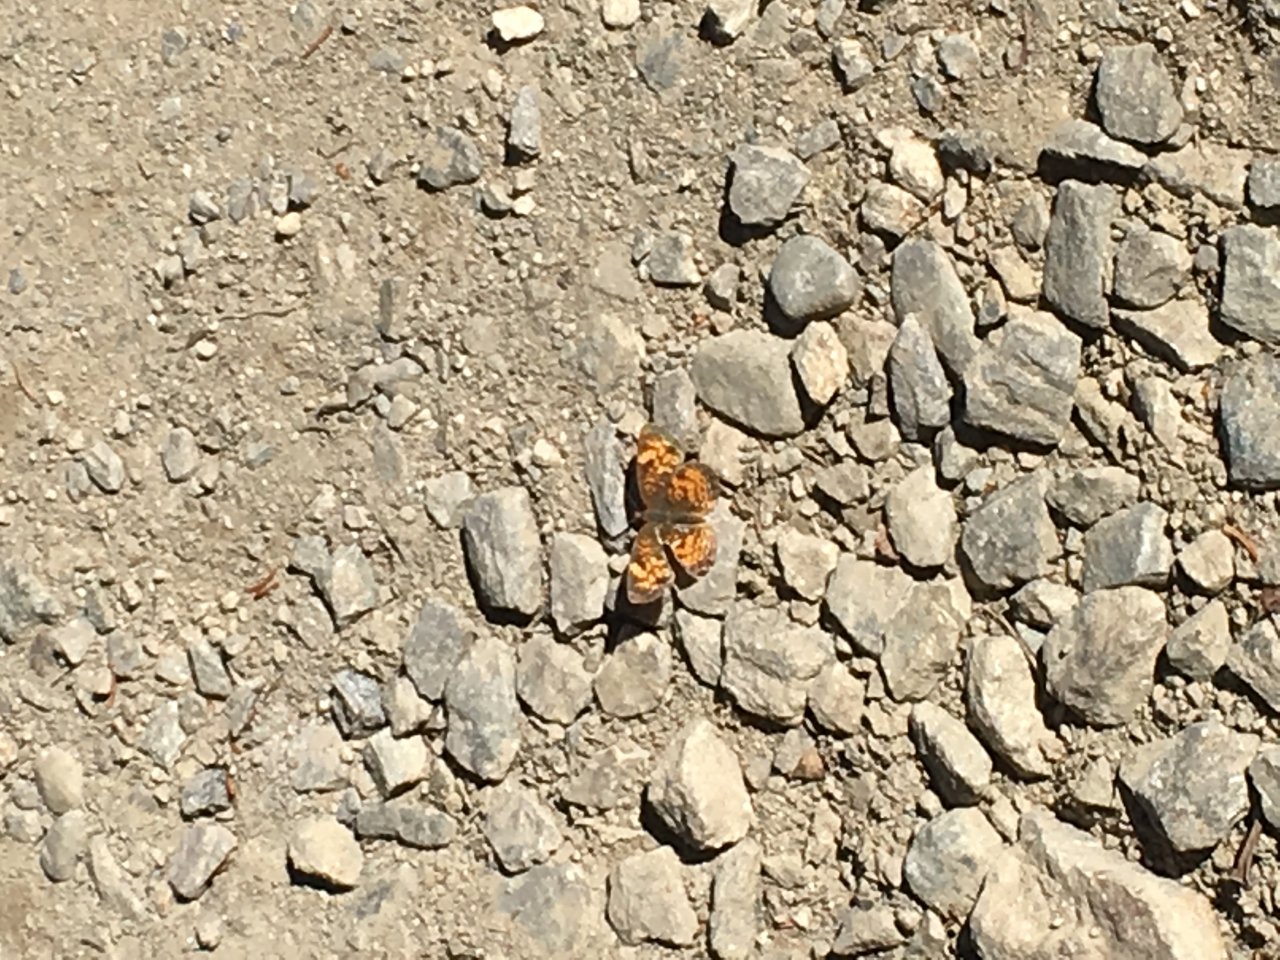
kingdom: Animalia
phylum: Arthropoda
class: Insecta
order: Lepidoptera
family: Nymphalidae
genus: Phyciodes
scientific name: Phyciodes tharos
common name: Pearl Crescent
